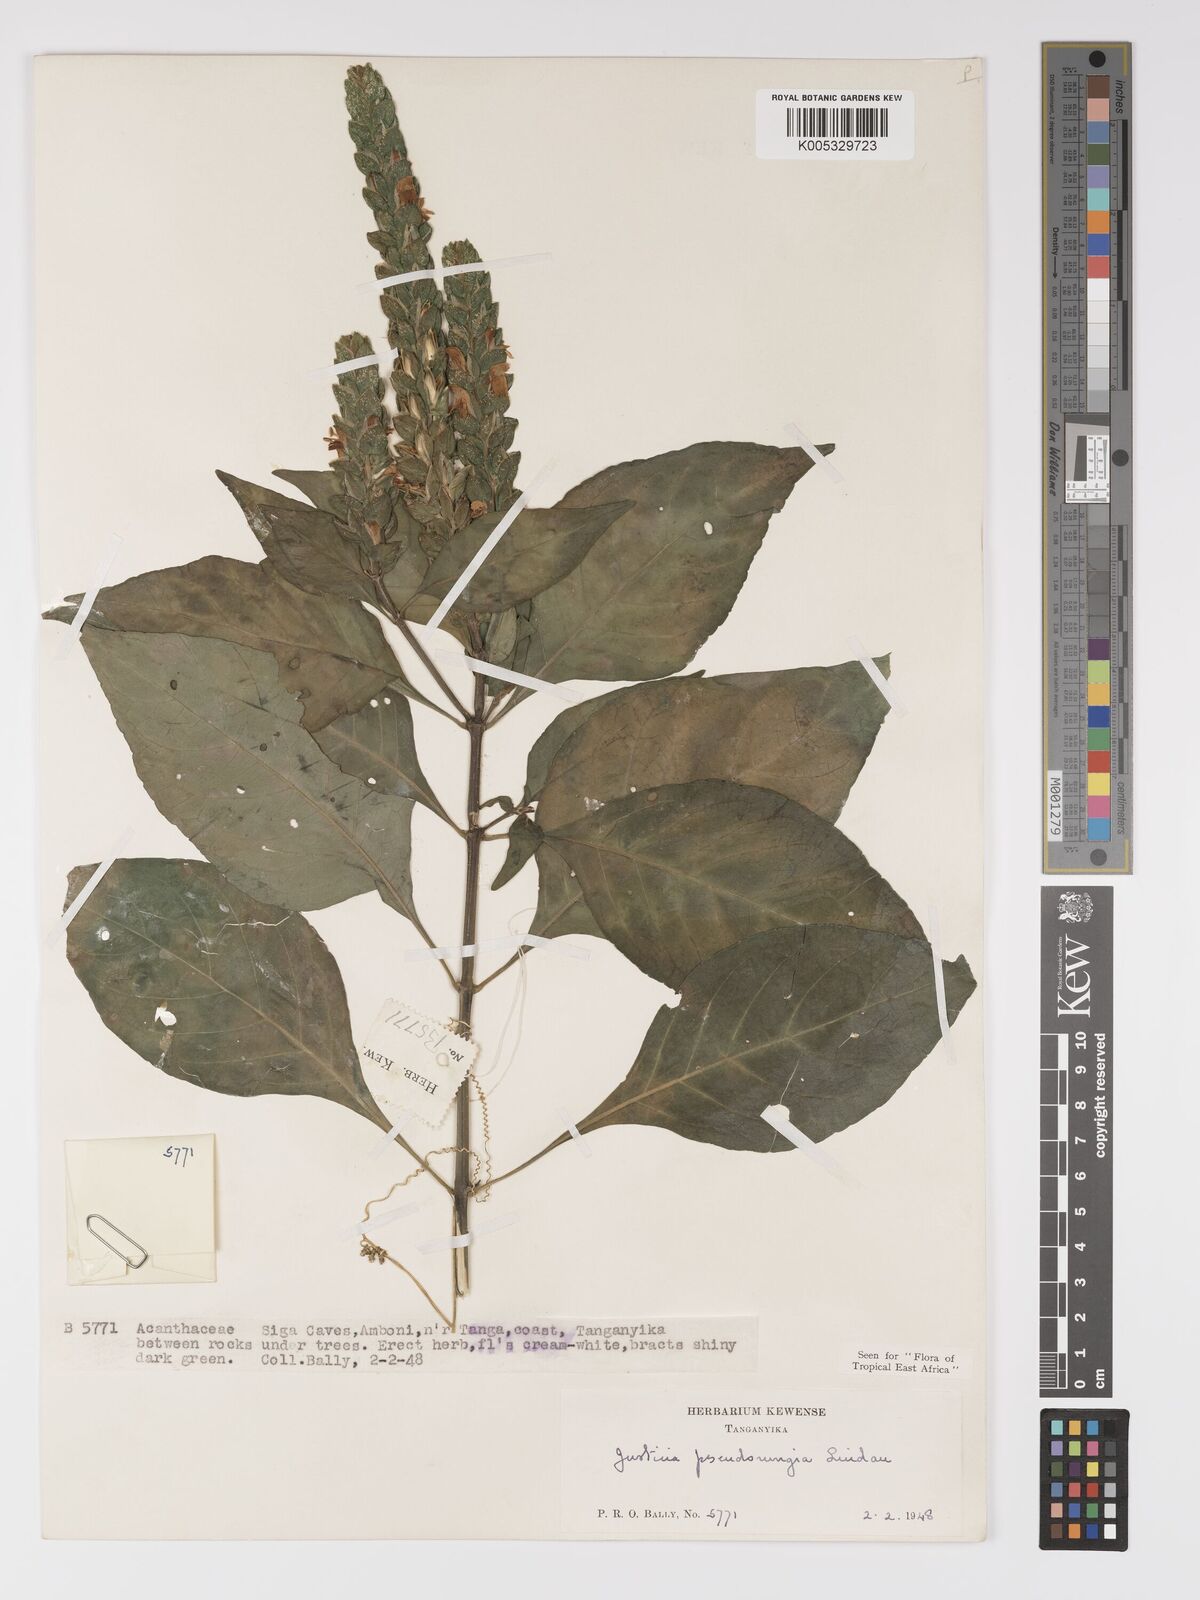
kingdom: Plantae
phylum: Tracheophyta
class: Magnoliopsida
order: Lamiales
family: Acanthaceae
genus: Justicia
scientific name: Justicia pseudorungia
